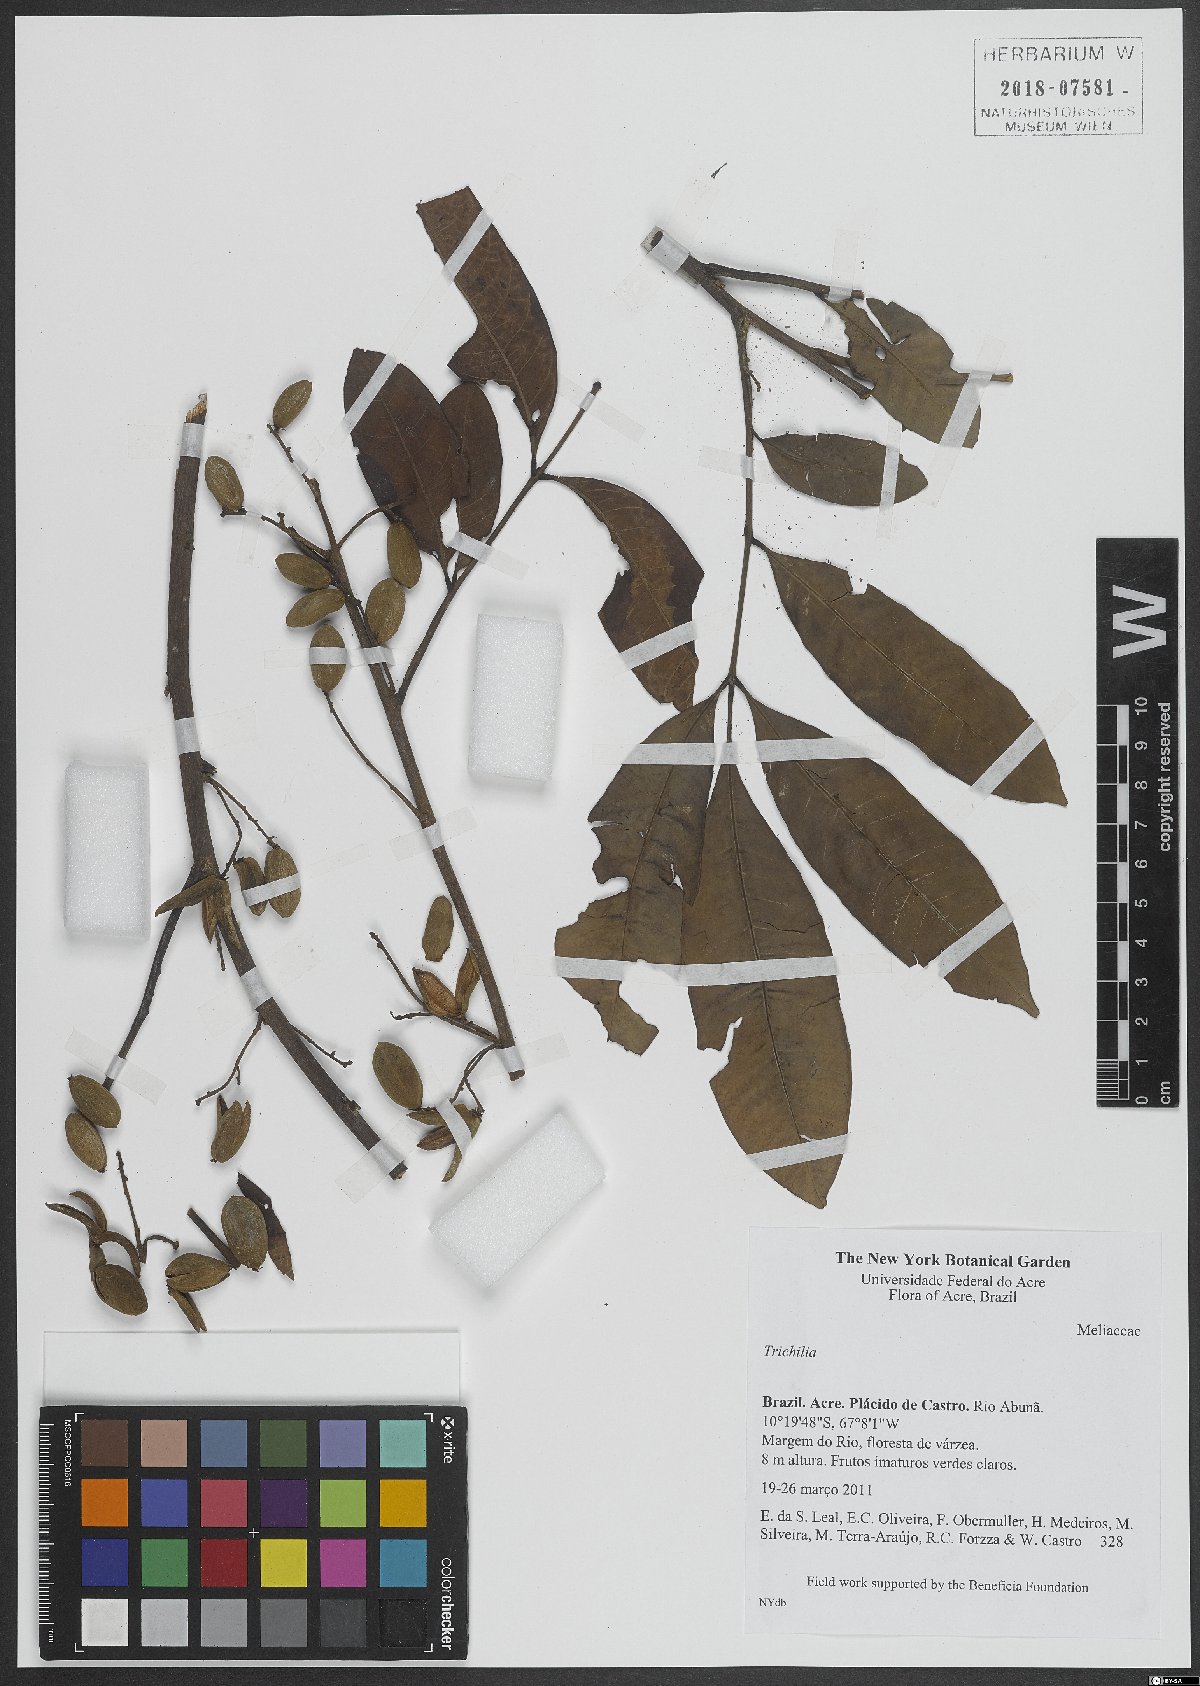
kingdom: Plantae
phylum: Tracheophyta
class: Magnoliopsida
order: Sapindales
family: Meliaceae
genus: Trichilia
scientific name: Trichilia
